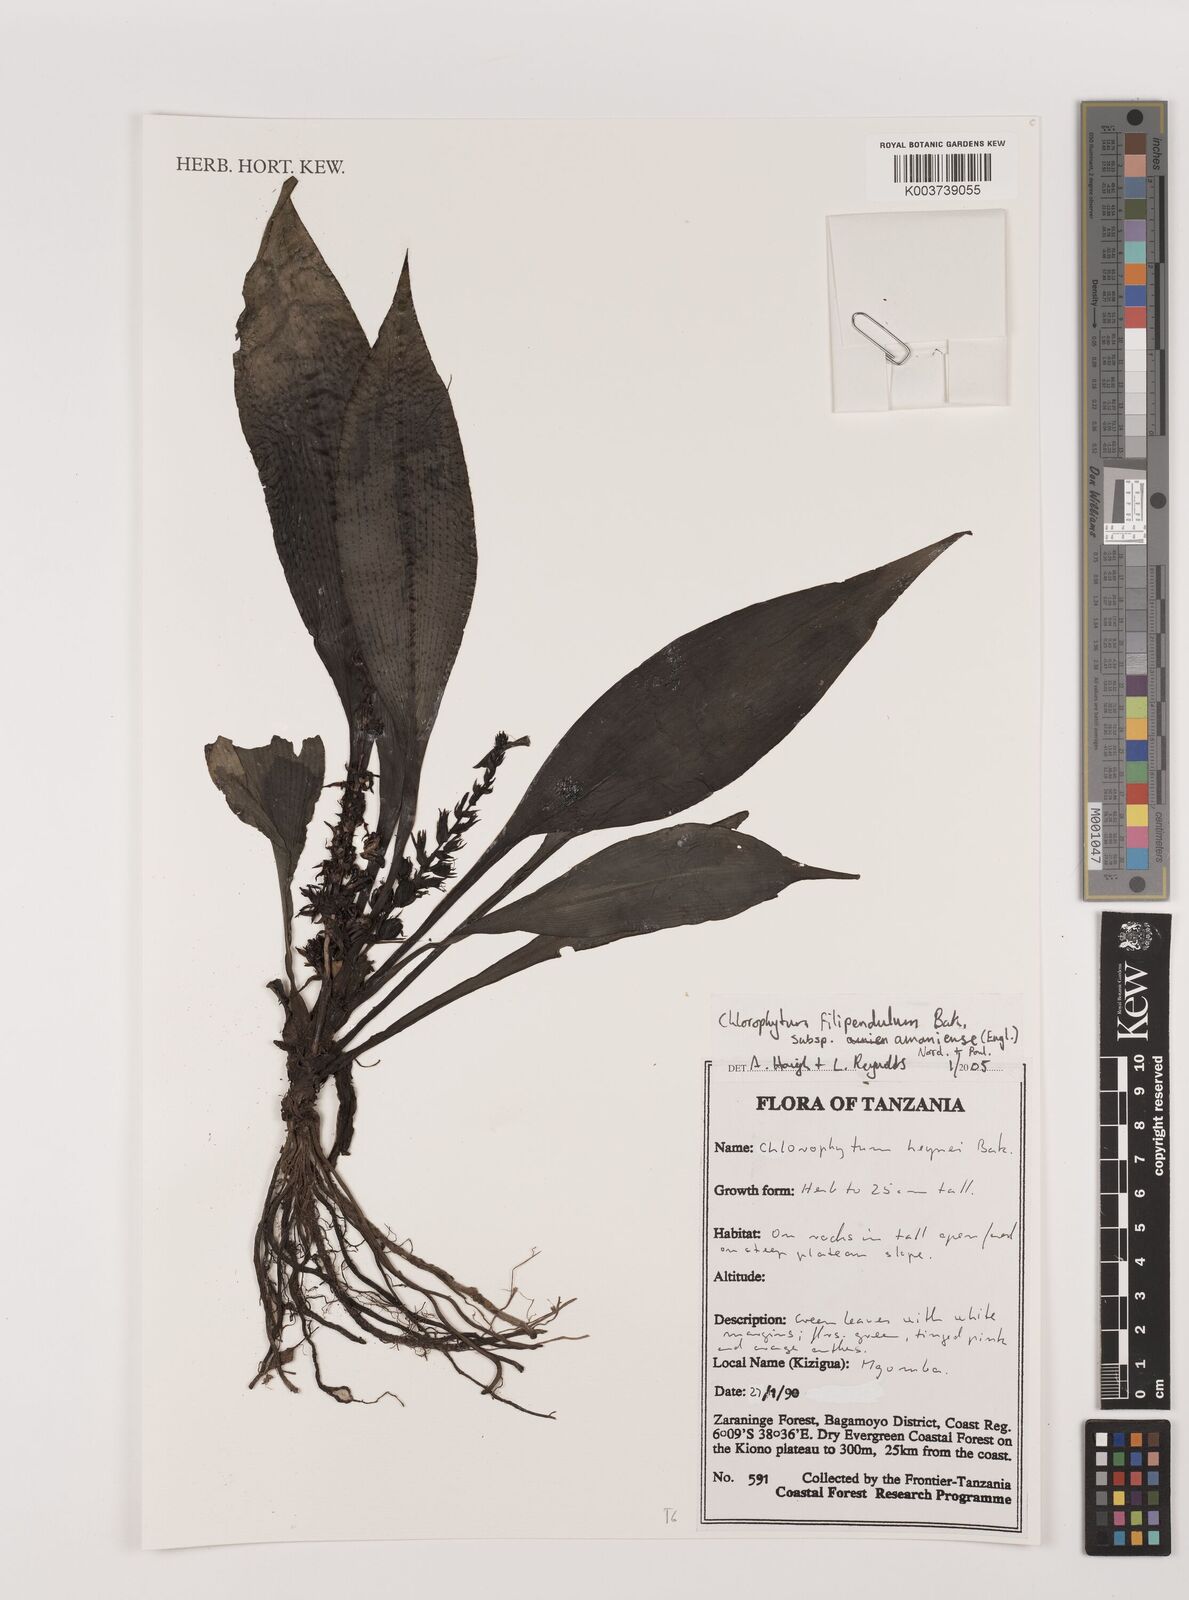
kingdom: Plantae
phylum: Tracheophyta
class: Liliopsida
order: Asparagales
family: Asparagaceae
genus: Chlorophytum
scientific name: Chlorophytum filipendulum
